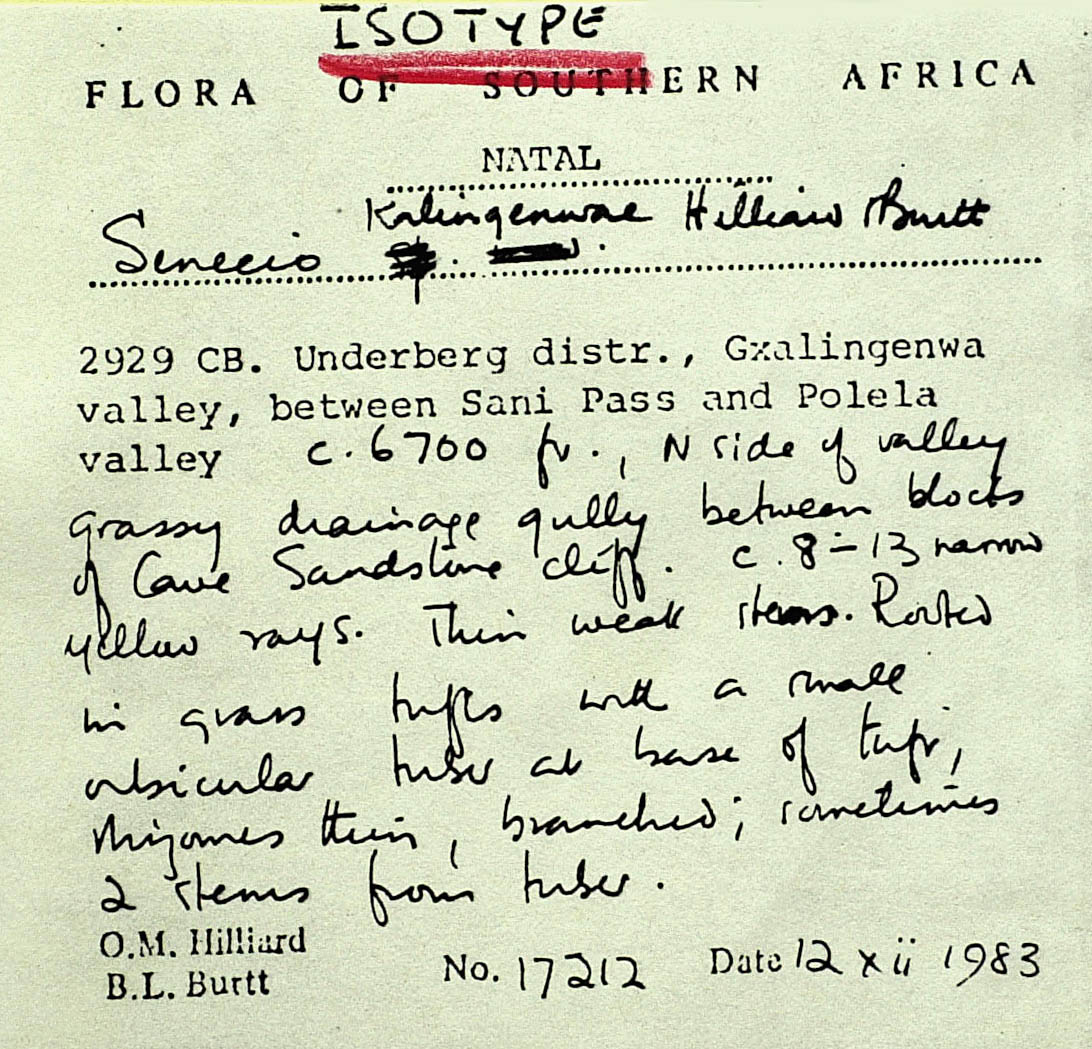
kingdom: Plantae
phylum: Tracheophyta
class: Magnoliopsida
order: Asterales
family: Asteraceae
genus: Senecio
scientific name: Senecio kalingenwae
